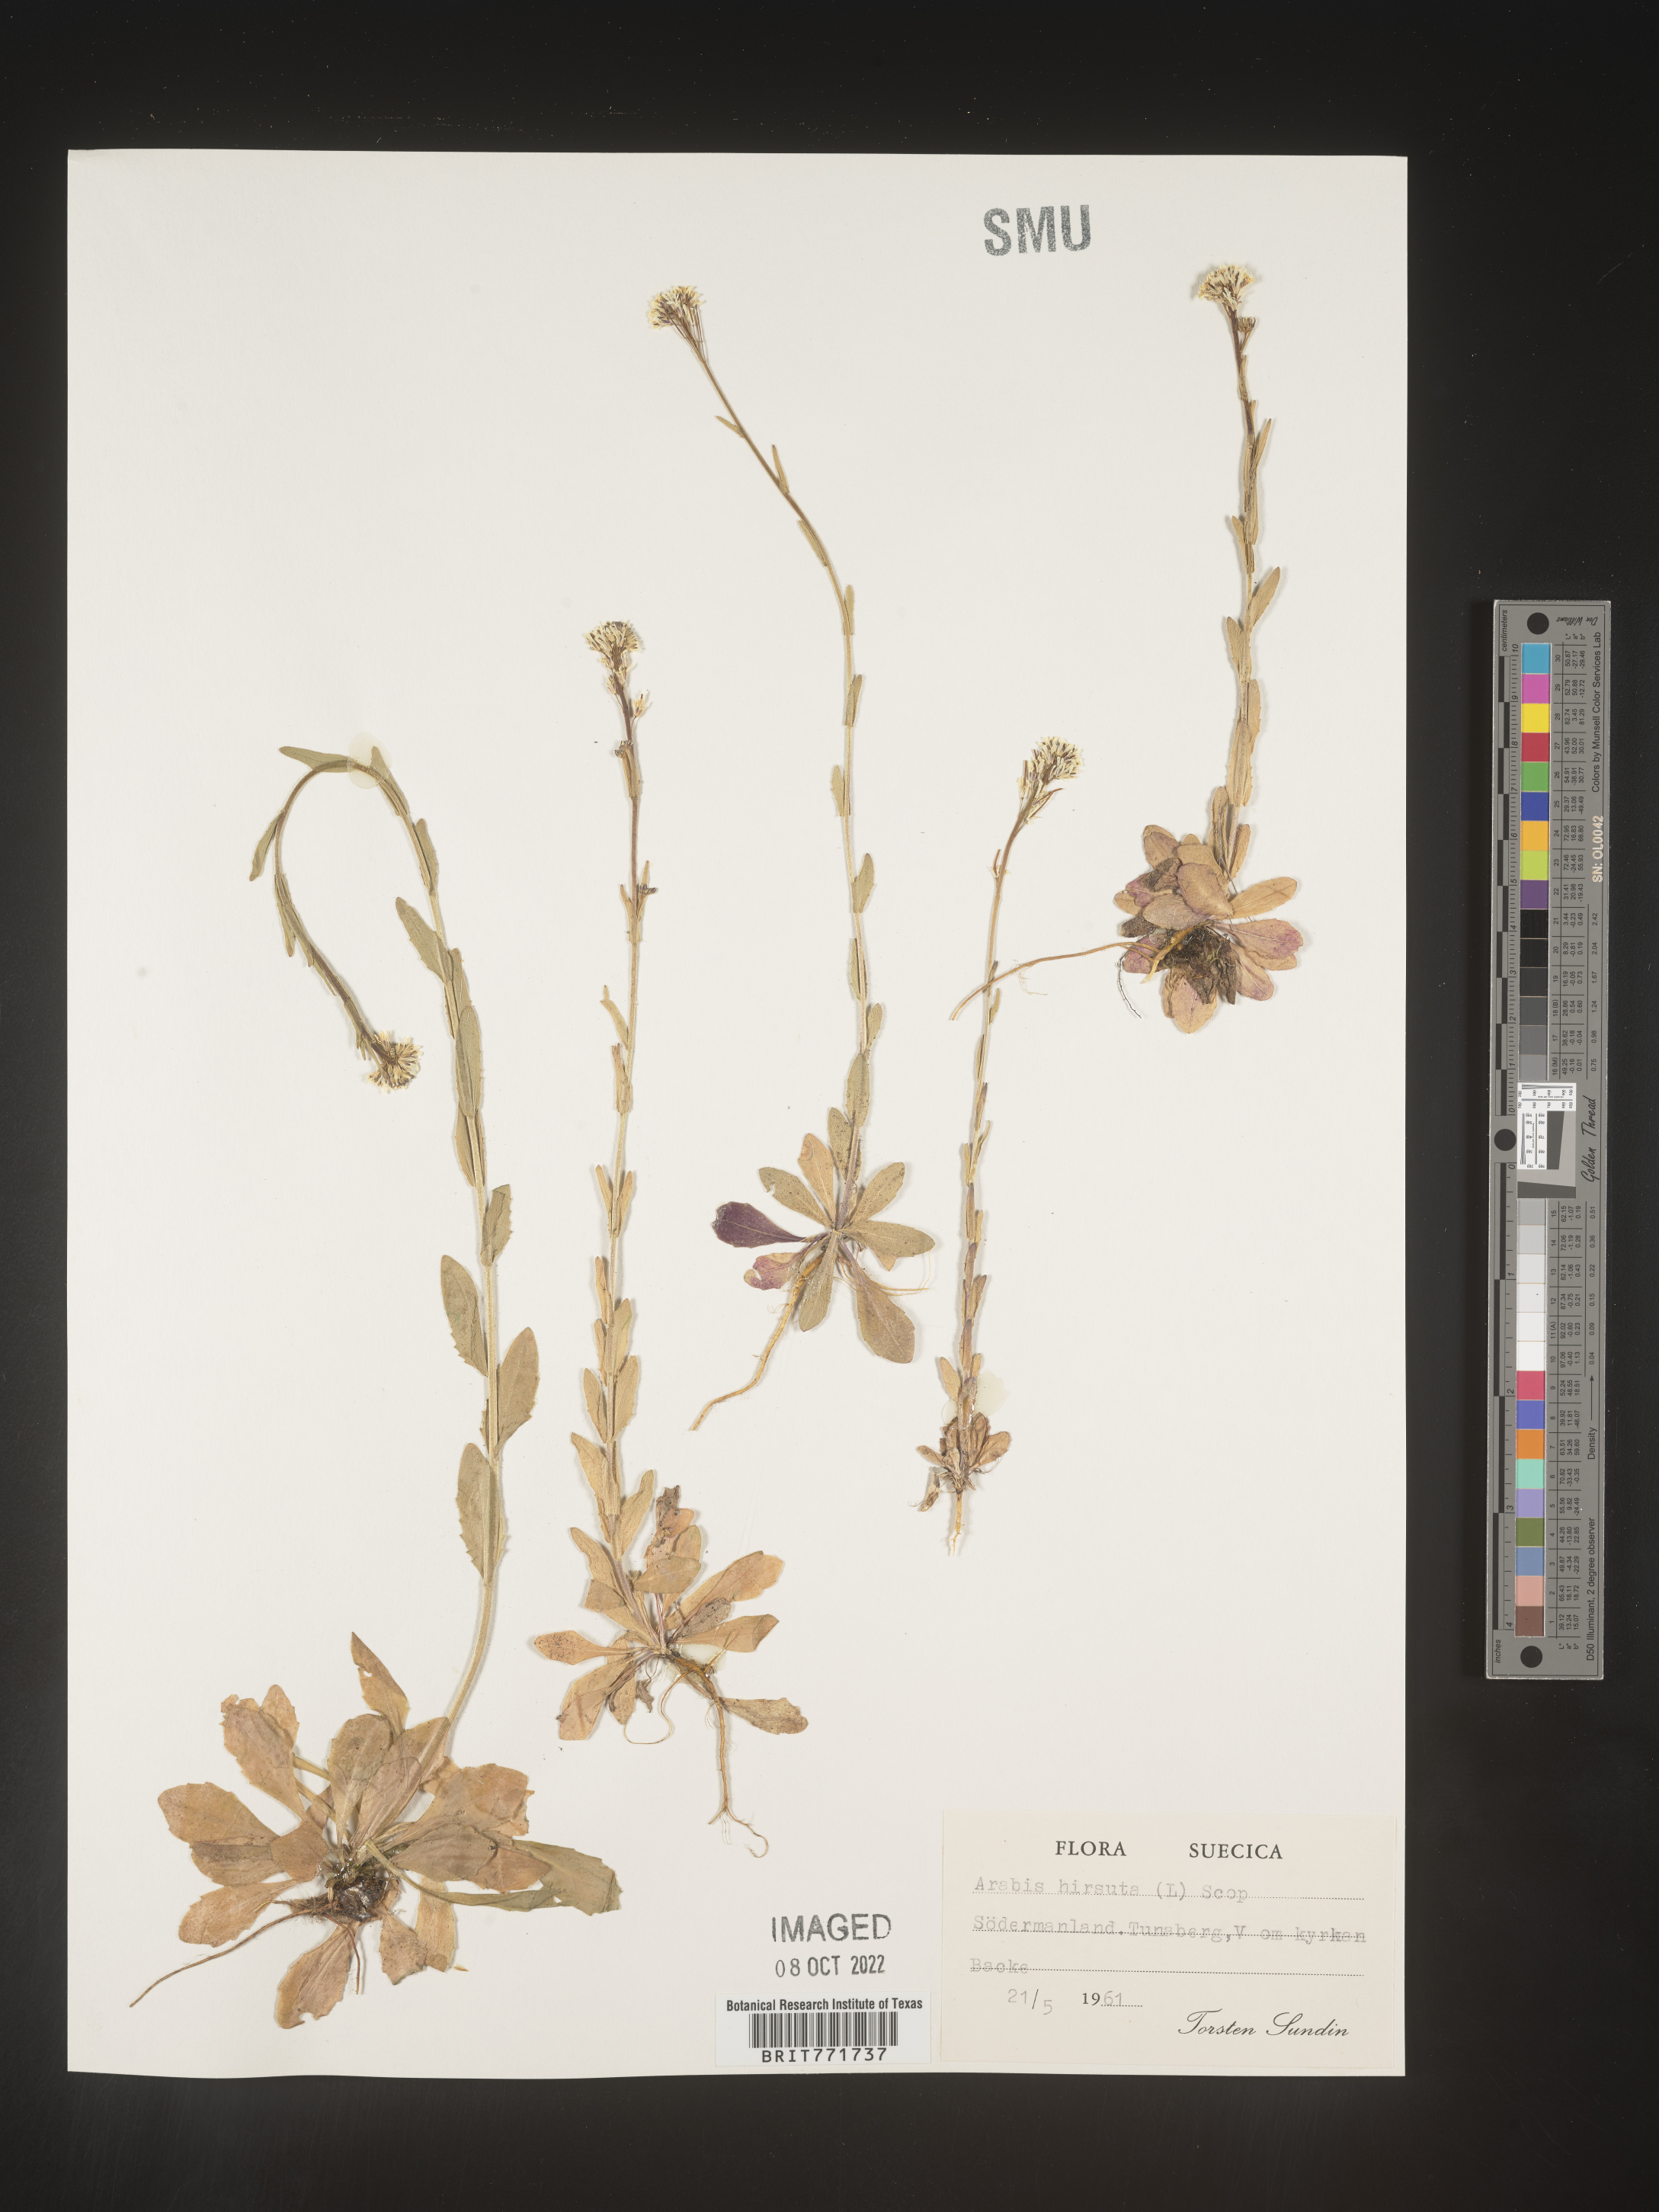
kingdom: Plantae
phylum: Tracheophyta
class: Magnoliopsida
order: Brassicales
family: Brassicaceae
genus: Arabis
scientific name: Arabis
